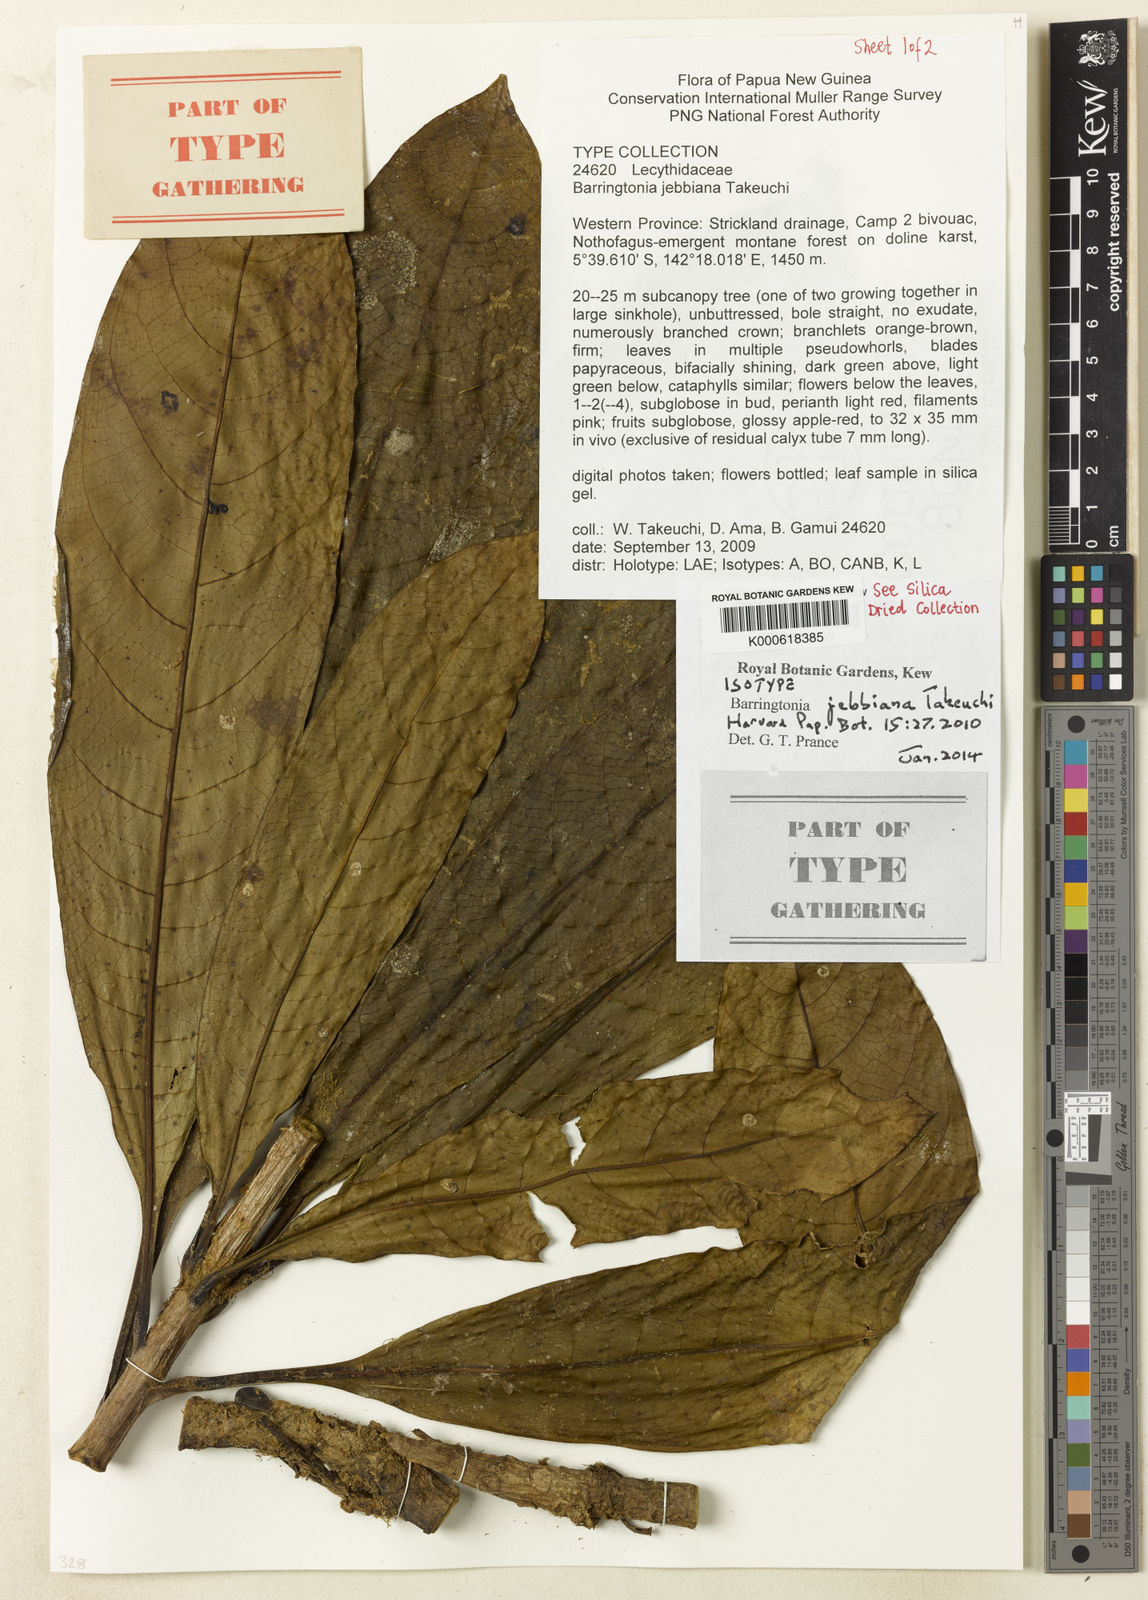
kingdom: Plantae
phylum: Tracheophyta
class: Magnoliopsida
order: Ericales
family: Lecythidaceae
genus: Barringtonia
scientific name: Barringtonia jebbiana
